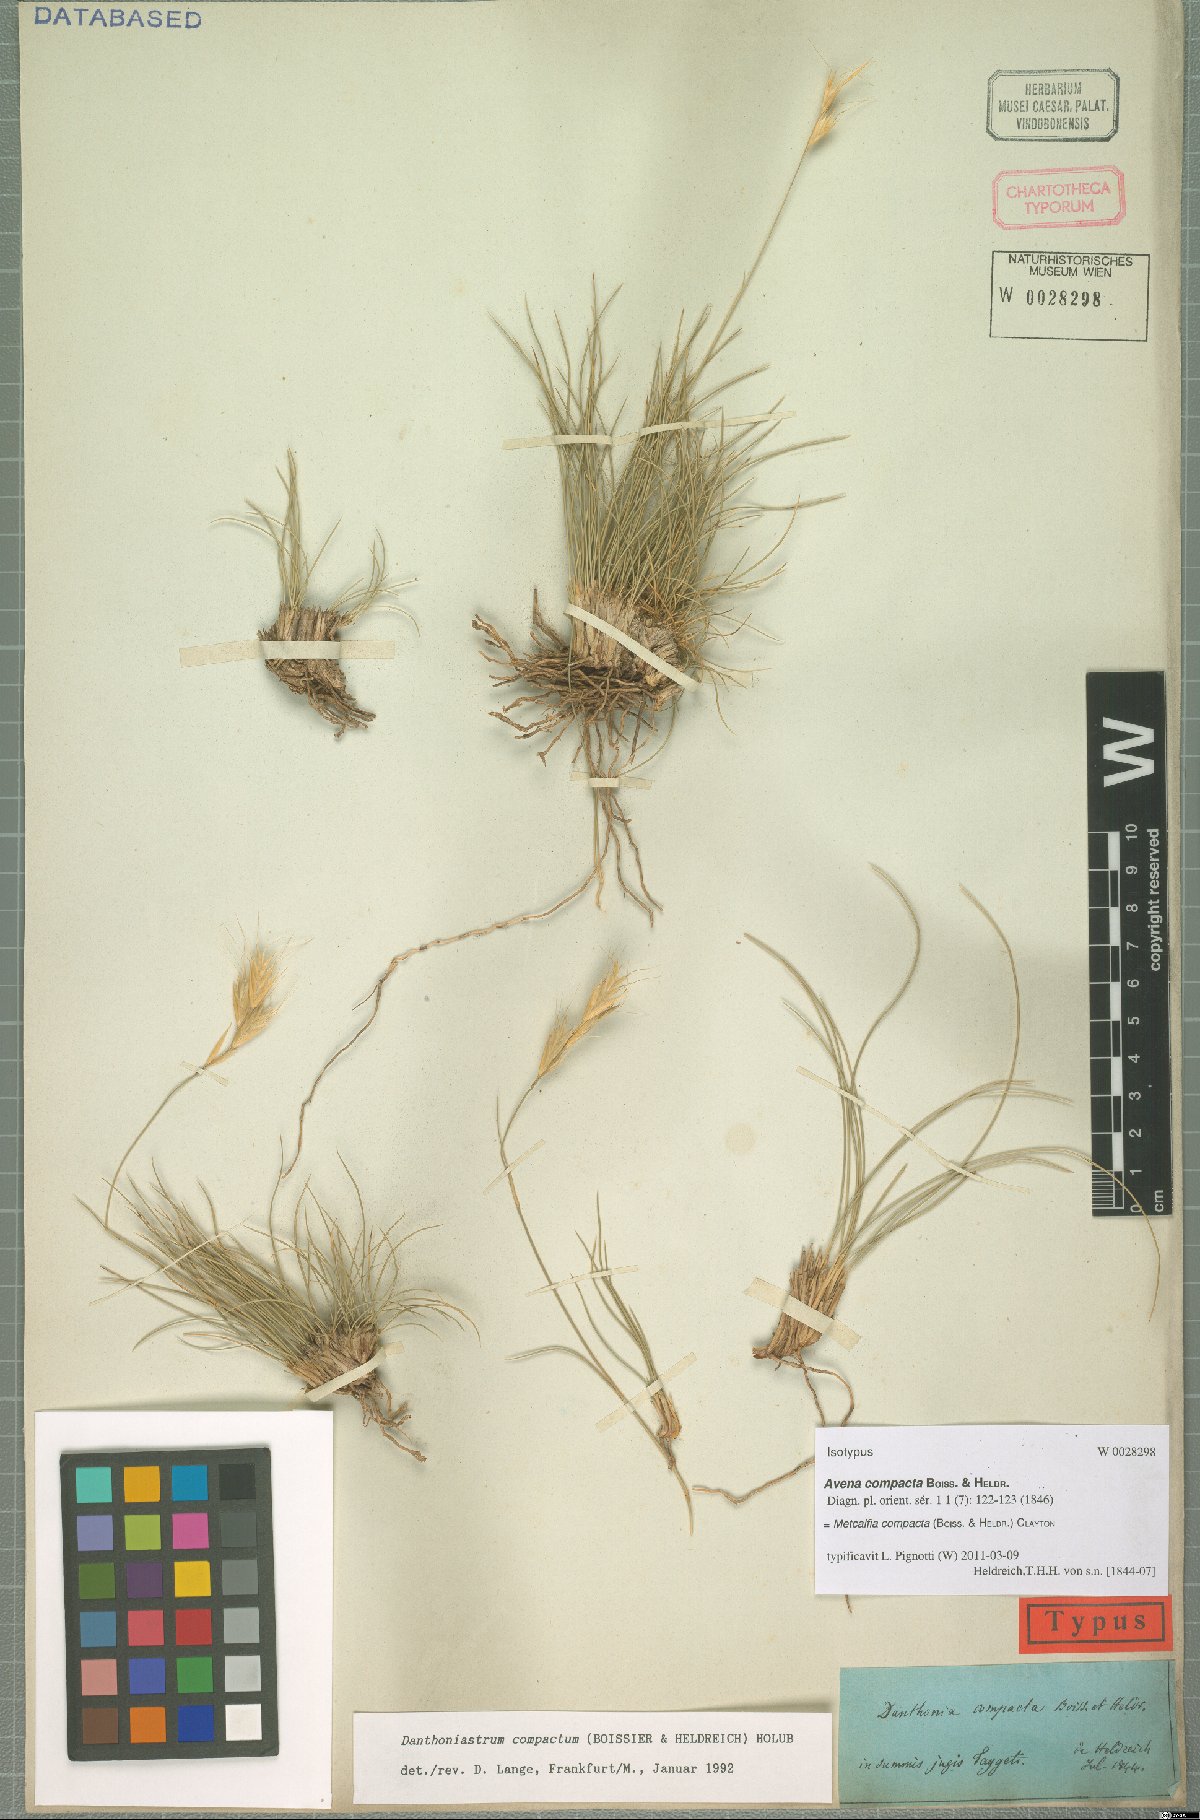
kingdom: Plantae
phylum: Tracheophyta
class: Liliopsida
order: Poales
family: Poaceae
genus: Danthoniastrum
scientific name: Danthoniastrum compactum
